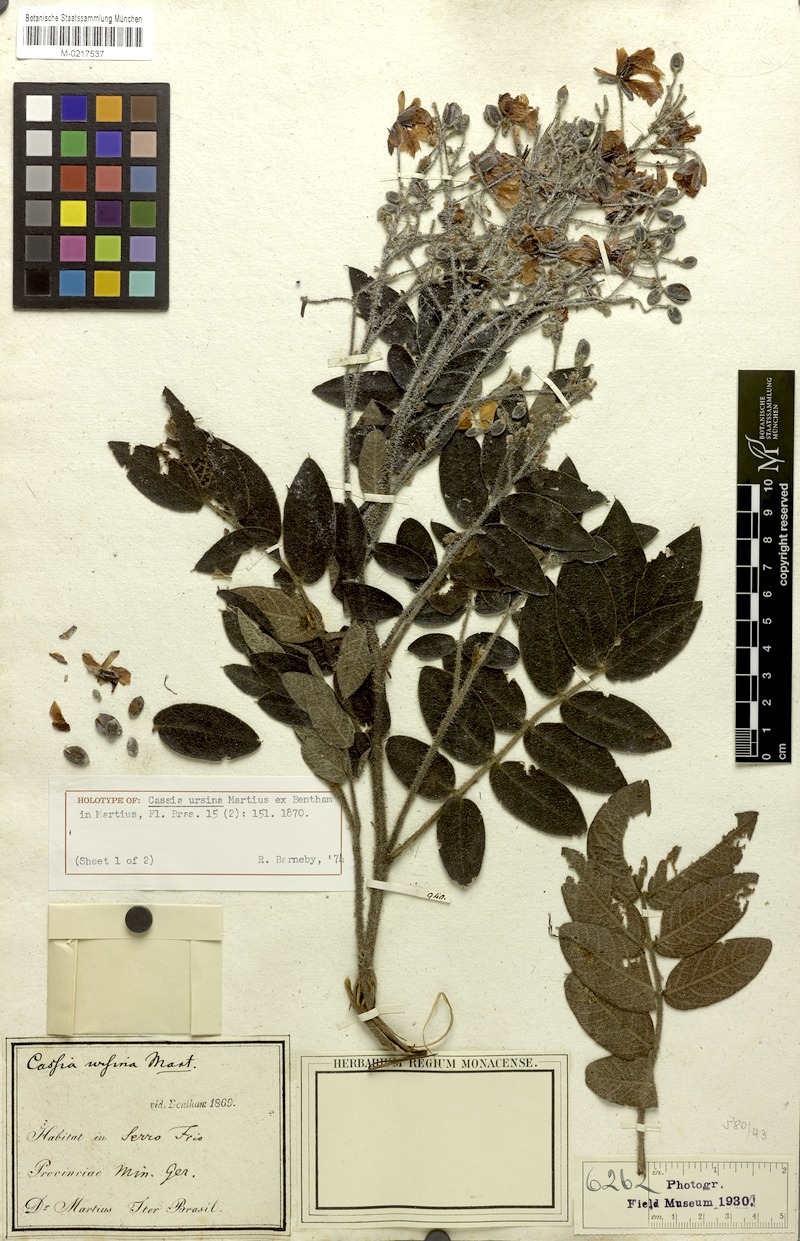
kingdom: Plantae
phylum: Tracheophyta
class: Magnoliopsida
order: Fabales
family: Fabaceae
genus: Chamaecrista
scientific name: Chamaecrista ursina
